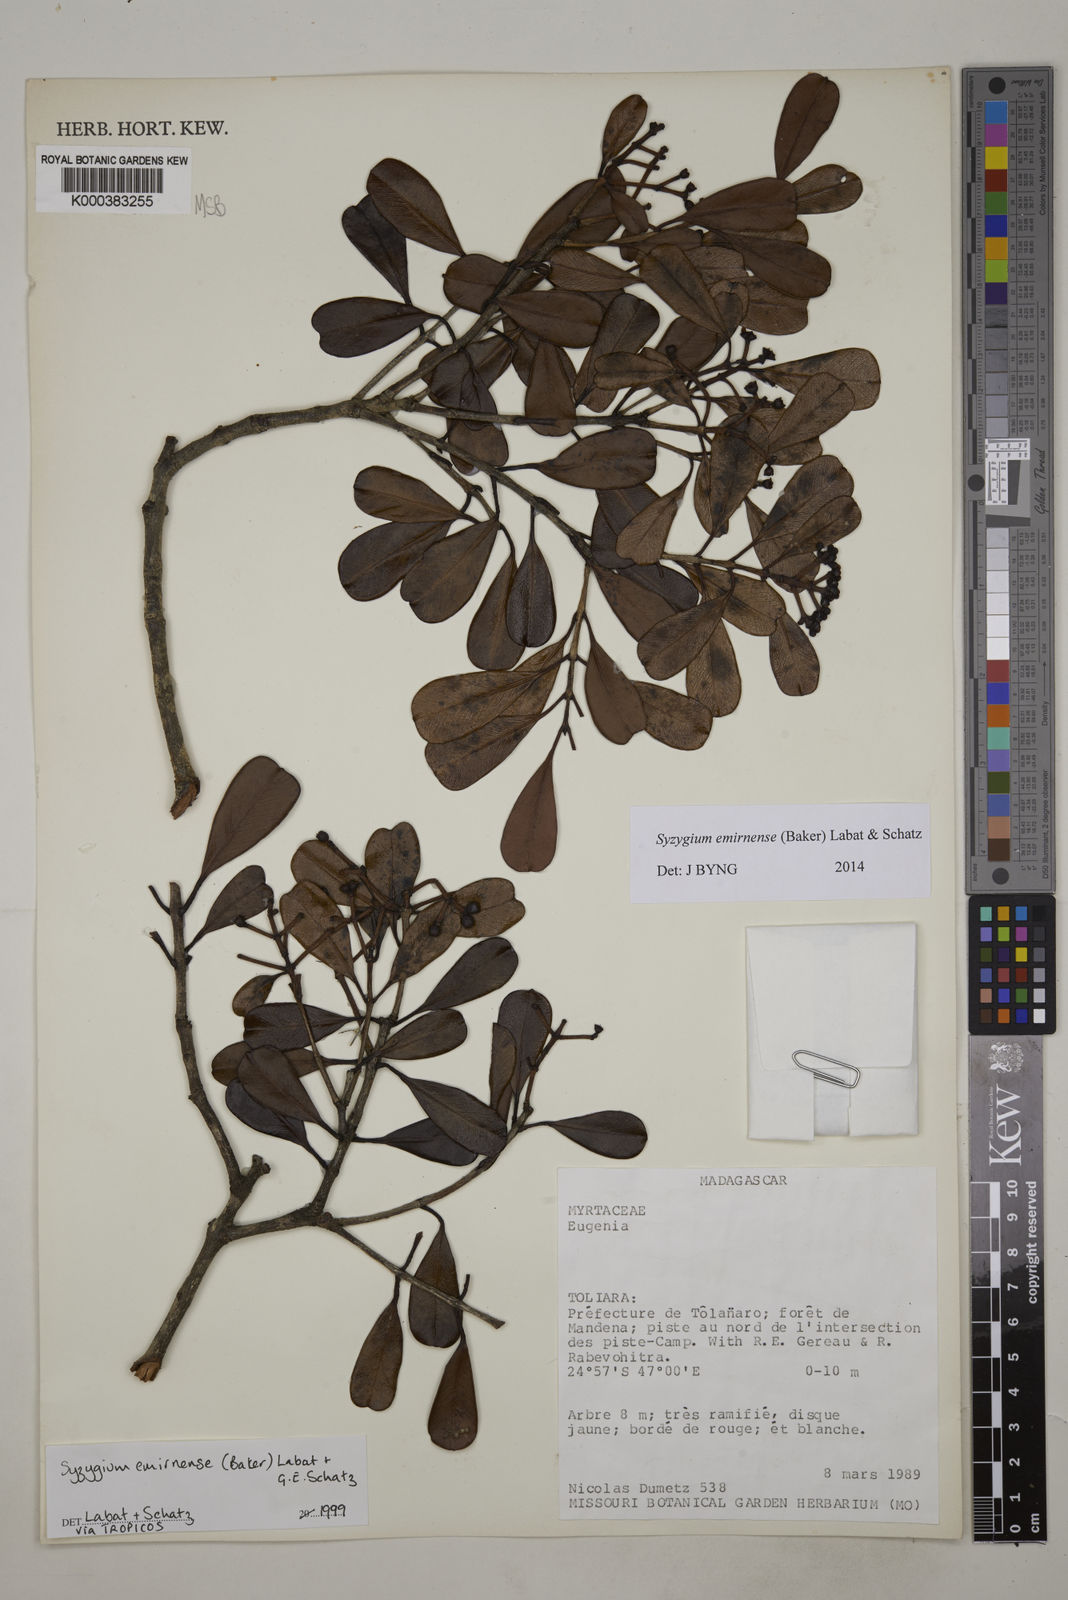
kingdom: Plantae
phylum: Tracheophyta
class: Magnoliopsida
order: Myrtales
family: Myrtaceae
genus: Syzygium
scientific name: Syzygium emirnense
